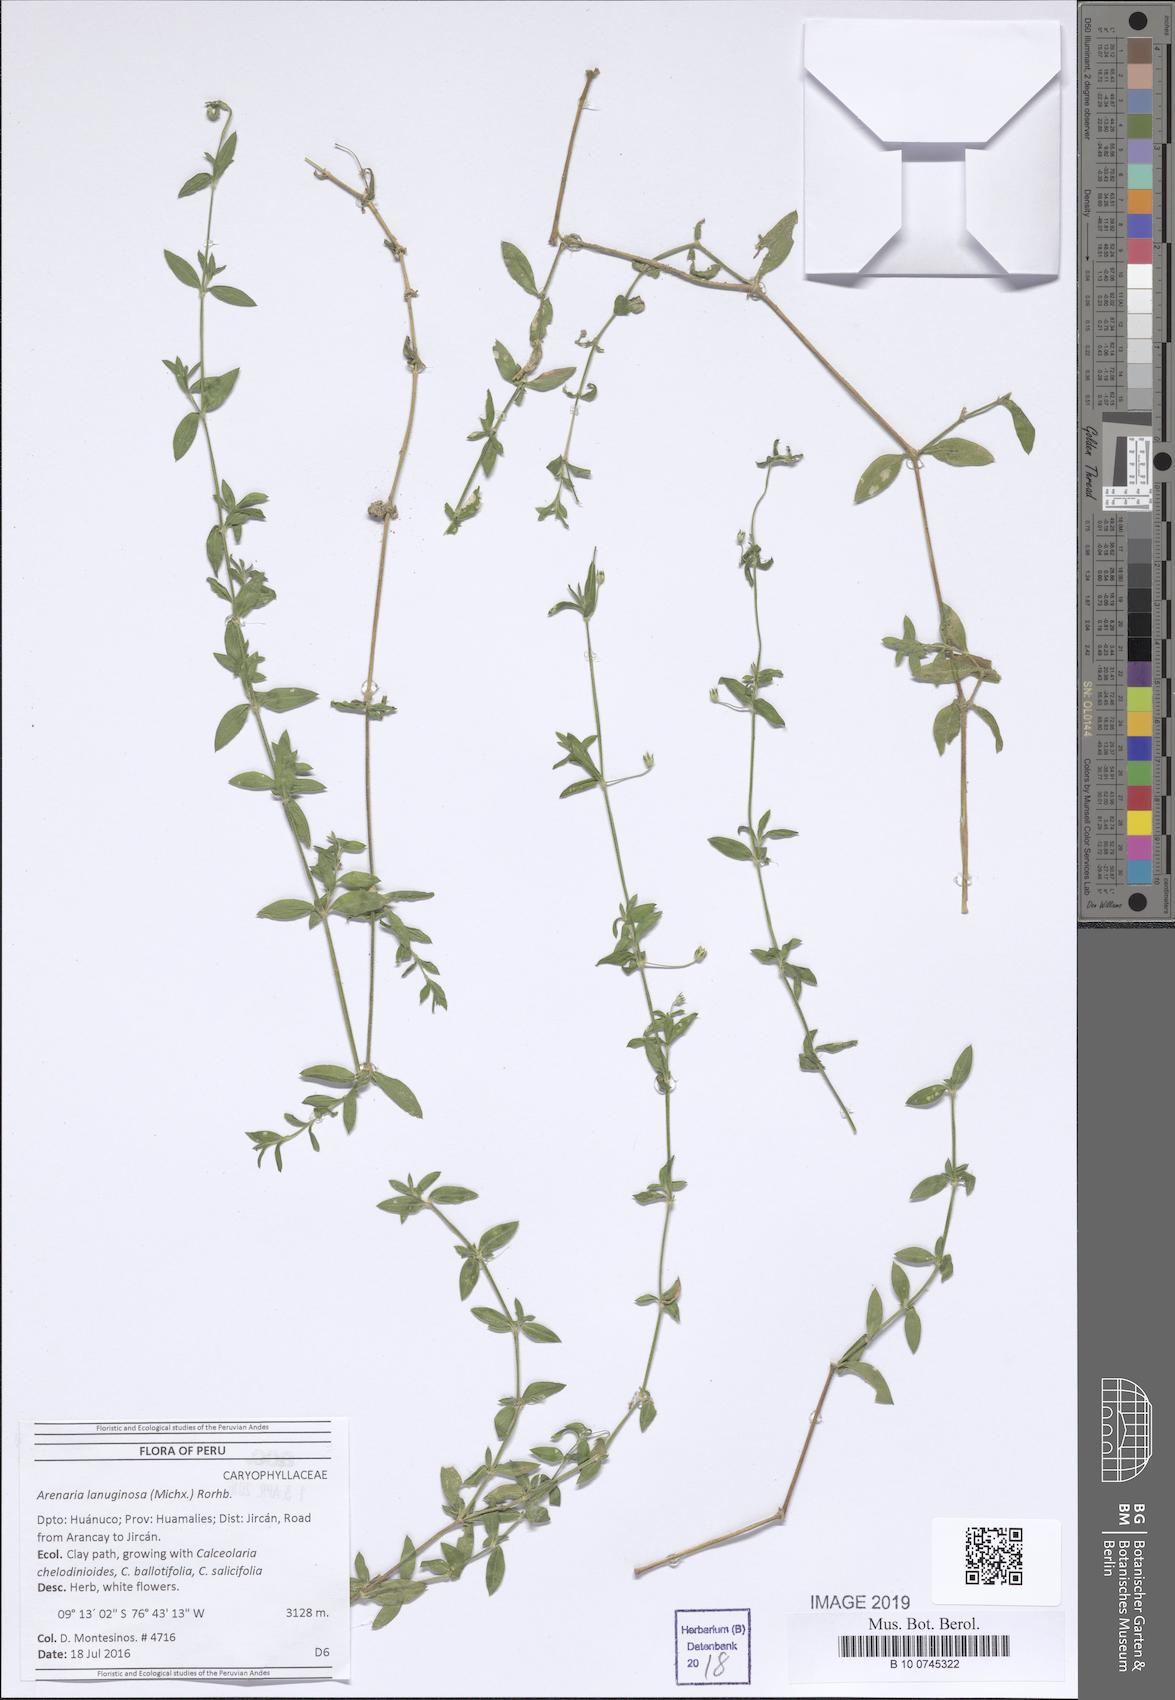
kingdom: Plantae
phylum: Tracheophyta
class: Magnoliopsida
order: Caryophyllales
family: Caryophyllaceae
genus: Arenaria
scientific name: Arenaria lanuginosa
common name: Spread sandwort
